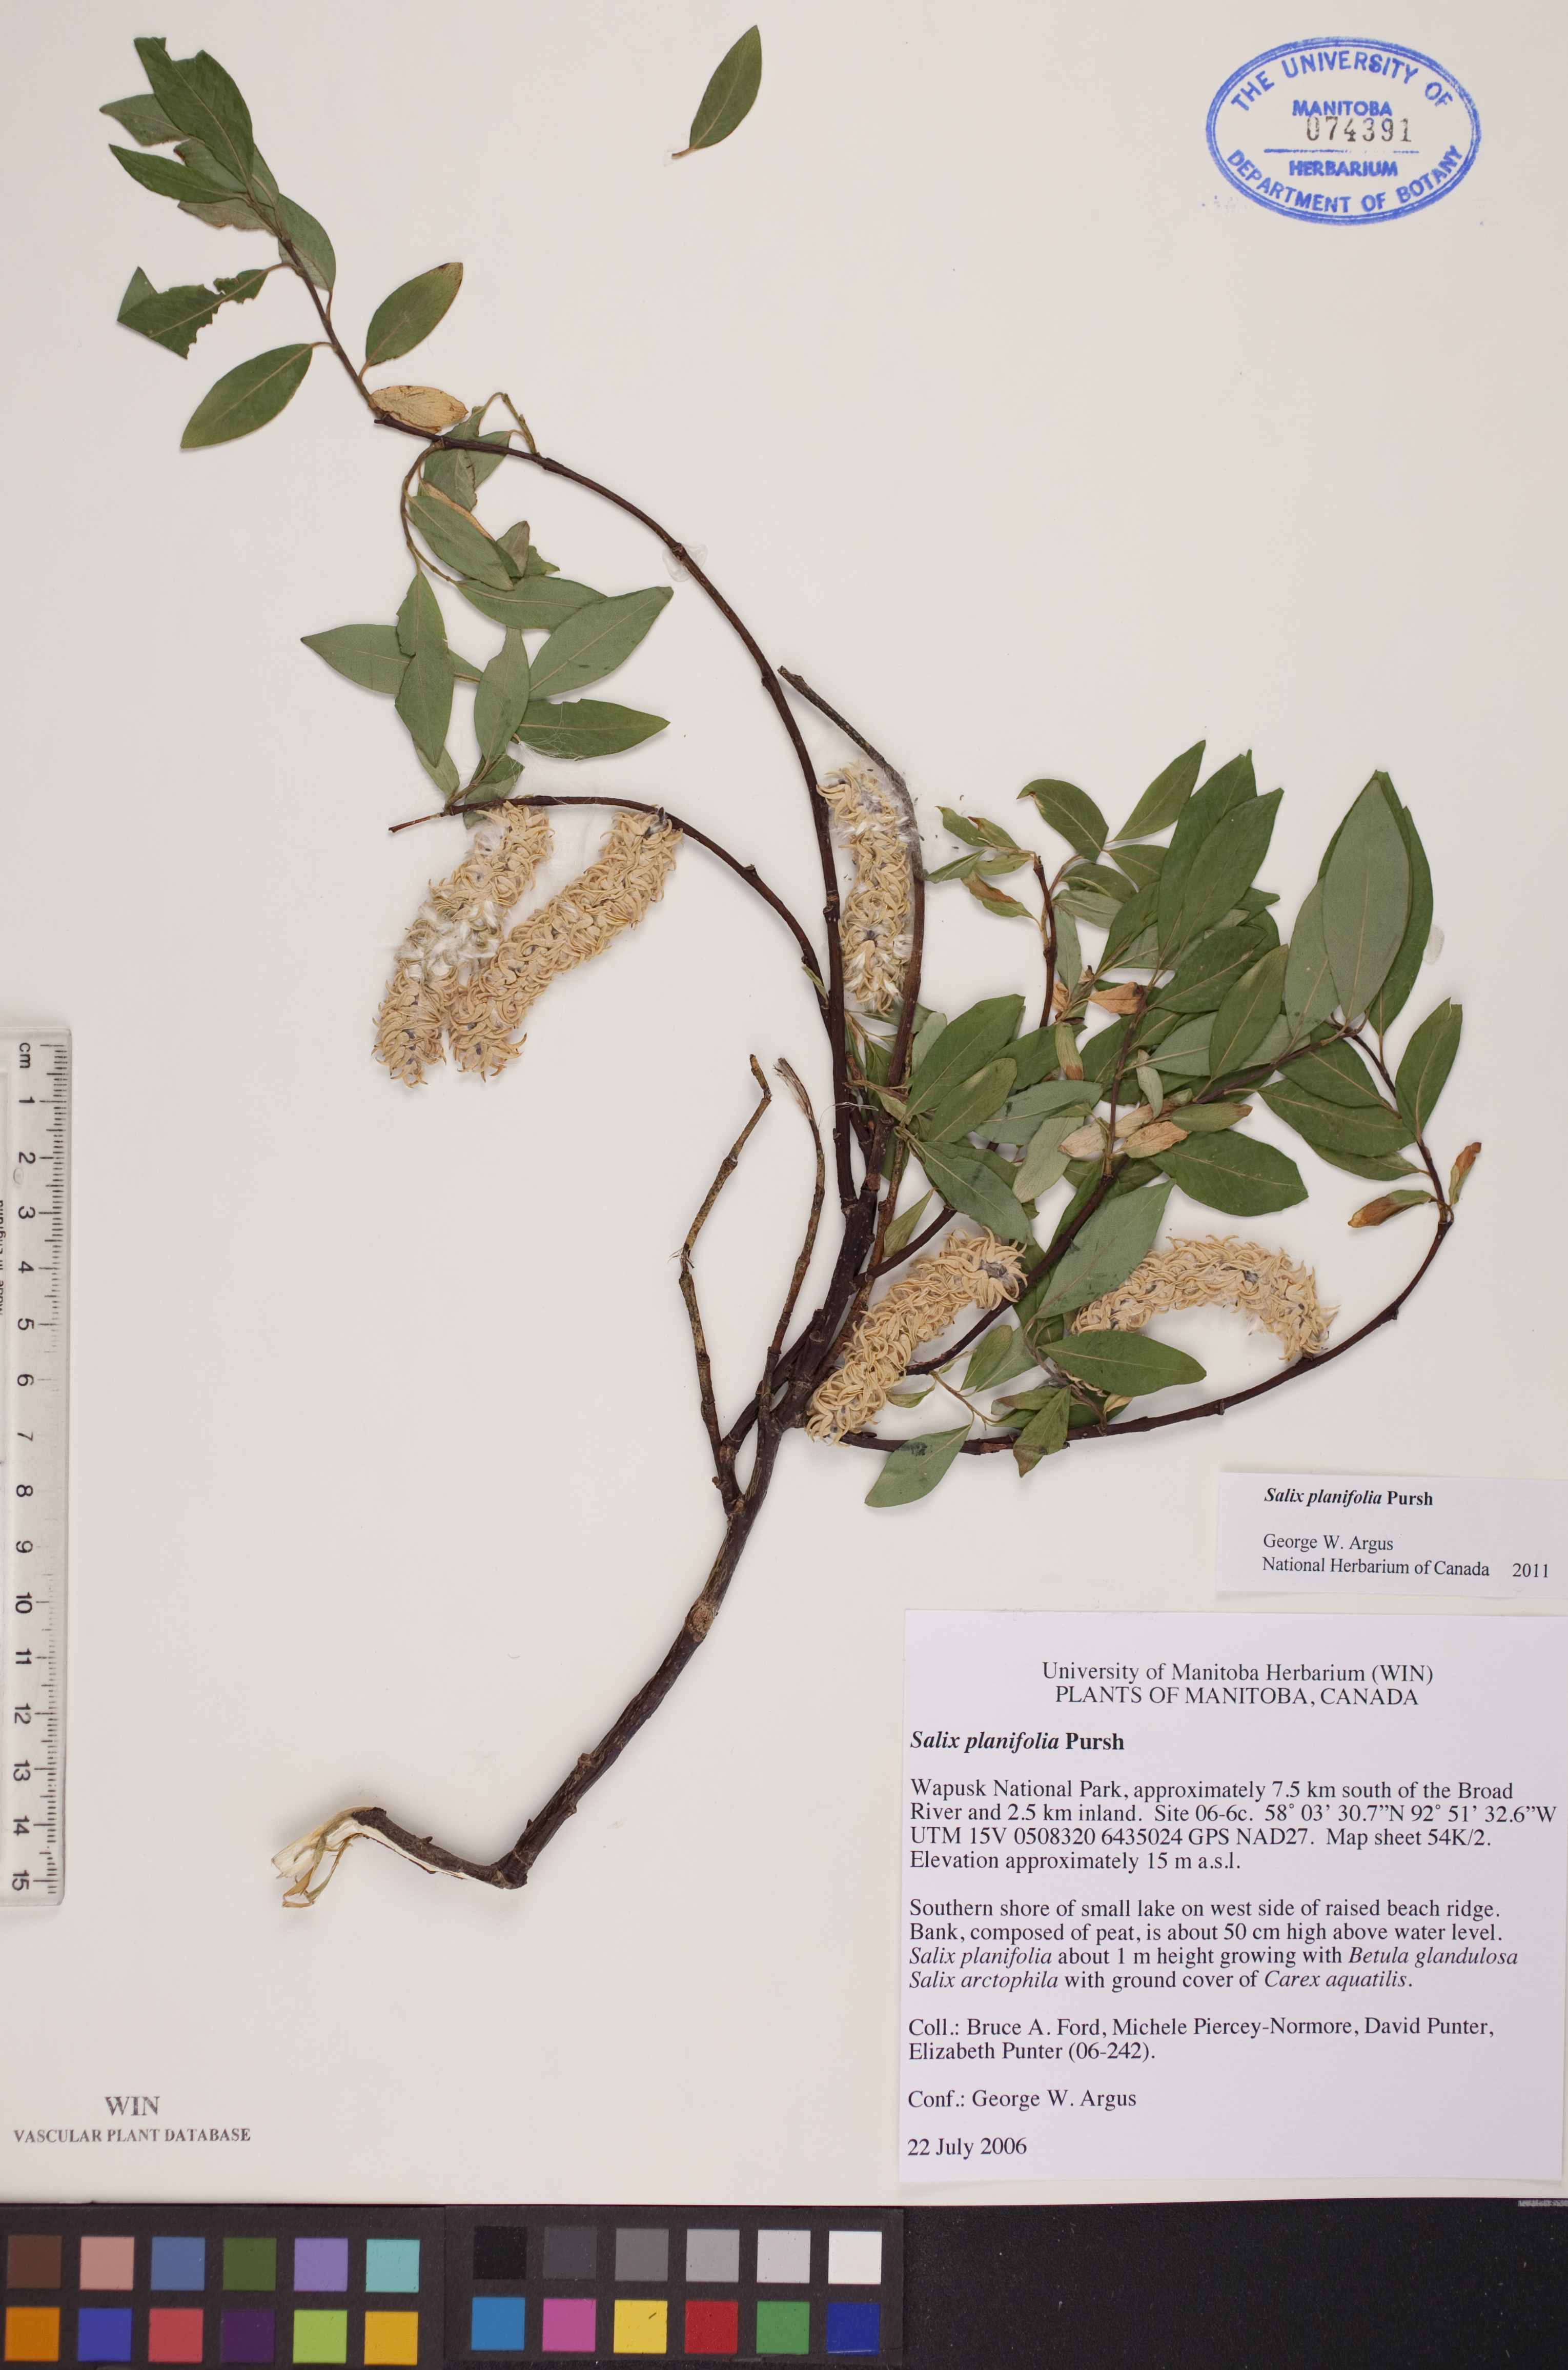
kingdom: Plantae
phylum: Tracheophyta
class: Magnoliopsida
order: Malpighiales
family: Salicaceae
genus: Salix
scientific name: Salix planifolia
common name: Mountain willow
